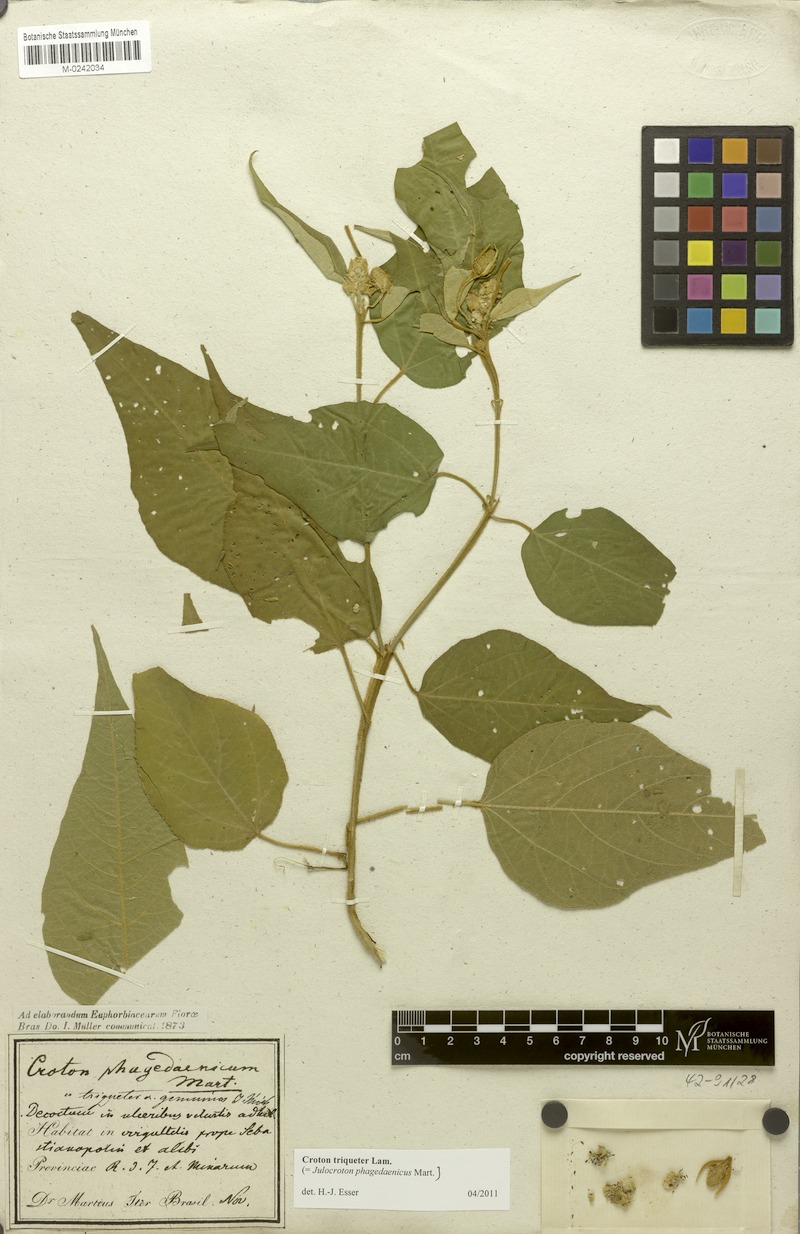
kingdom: Plantae
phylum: Tracheophyta
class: Magnoliopsida
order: Malpighiales
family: Euphorbiaceae
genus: Croton
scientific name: Croton triqueter
